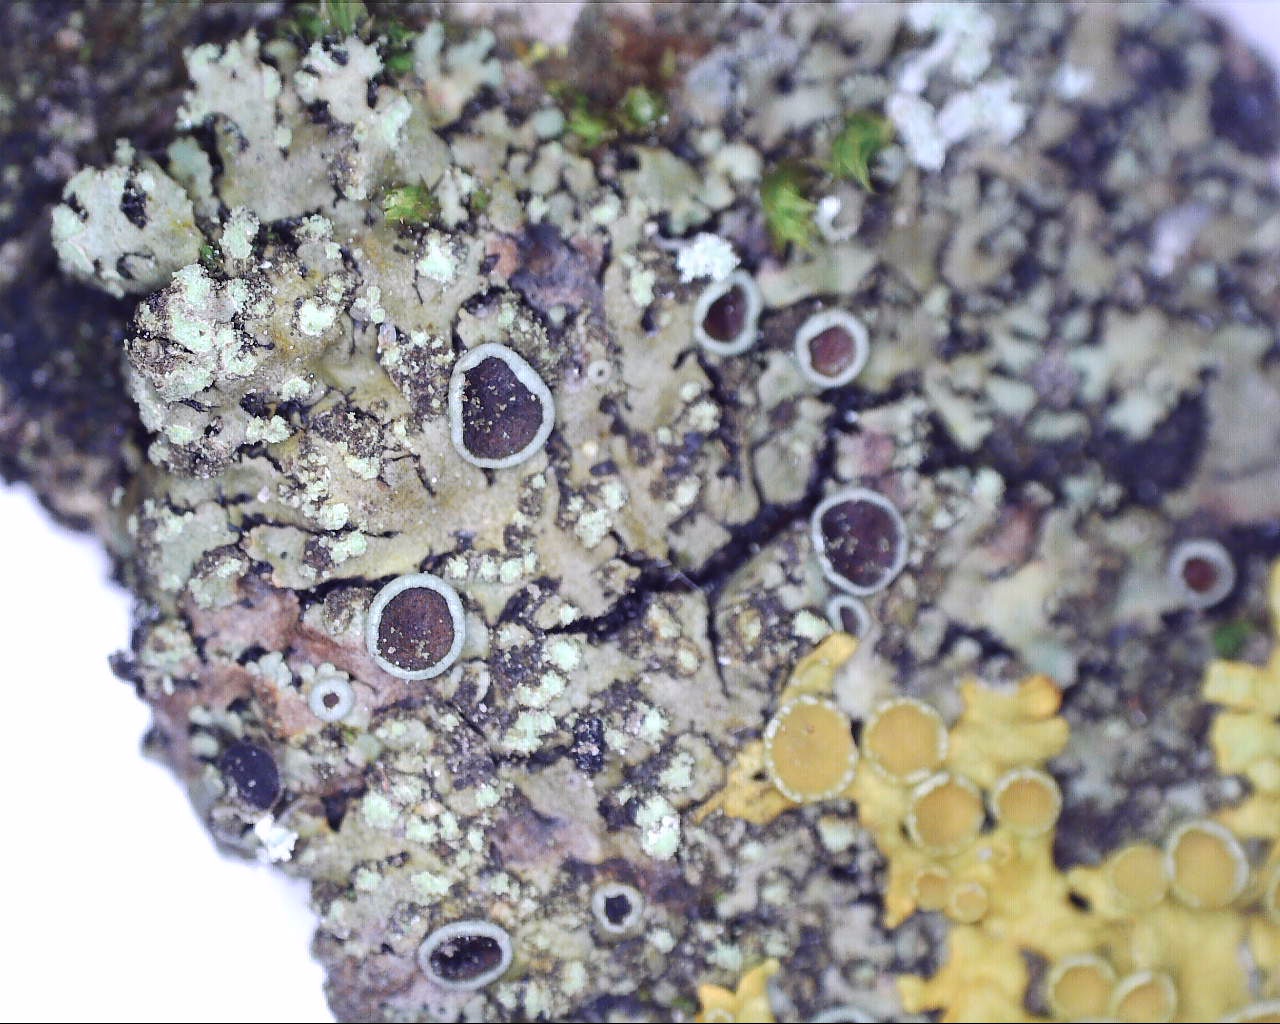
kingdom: Fungi
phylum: Ascomycota
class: Lecanoromycetes
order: Caliciales
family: Physciaceae
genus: Phaeophyscia
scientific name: Phaeophyscia orbicularis
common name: grågrøn rosetlav
